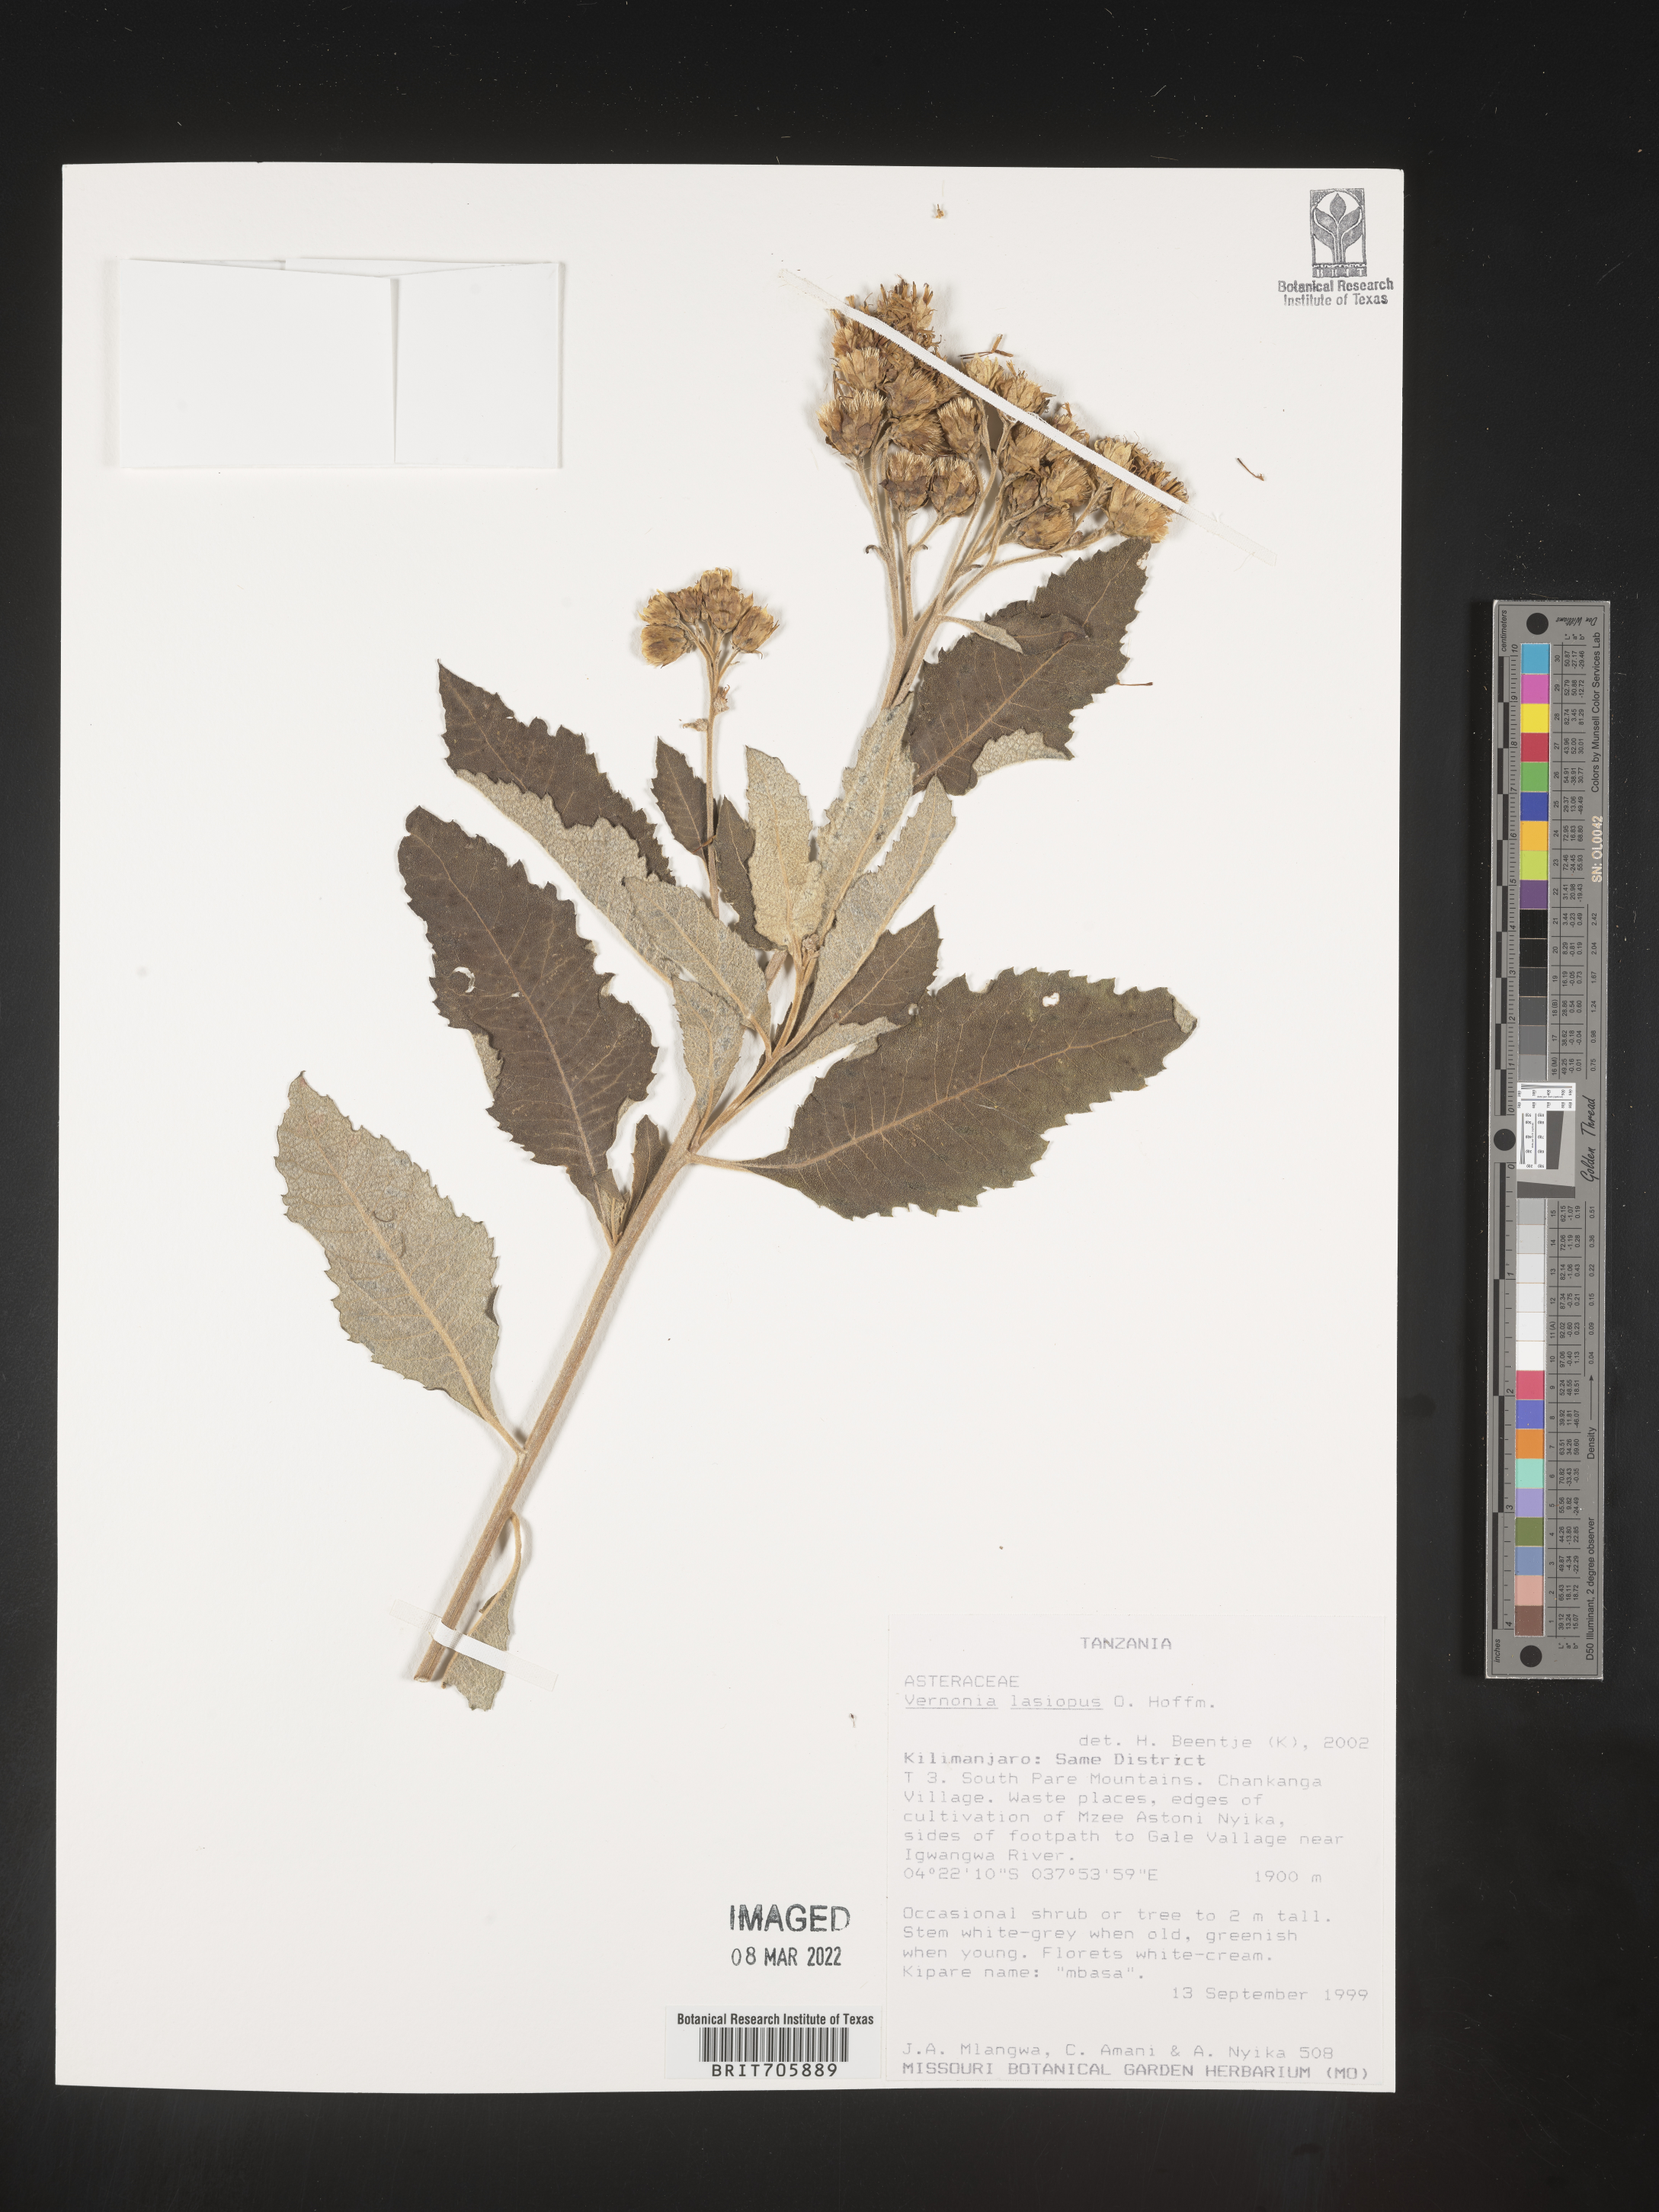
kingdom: Plantae
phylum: Tracheophyta
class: Magnoliopsida
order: Asterales
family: Asteraceae
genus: Vernonia
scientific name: Vernonia
